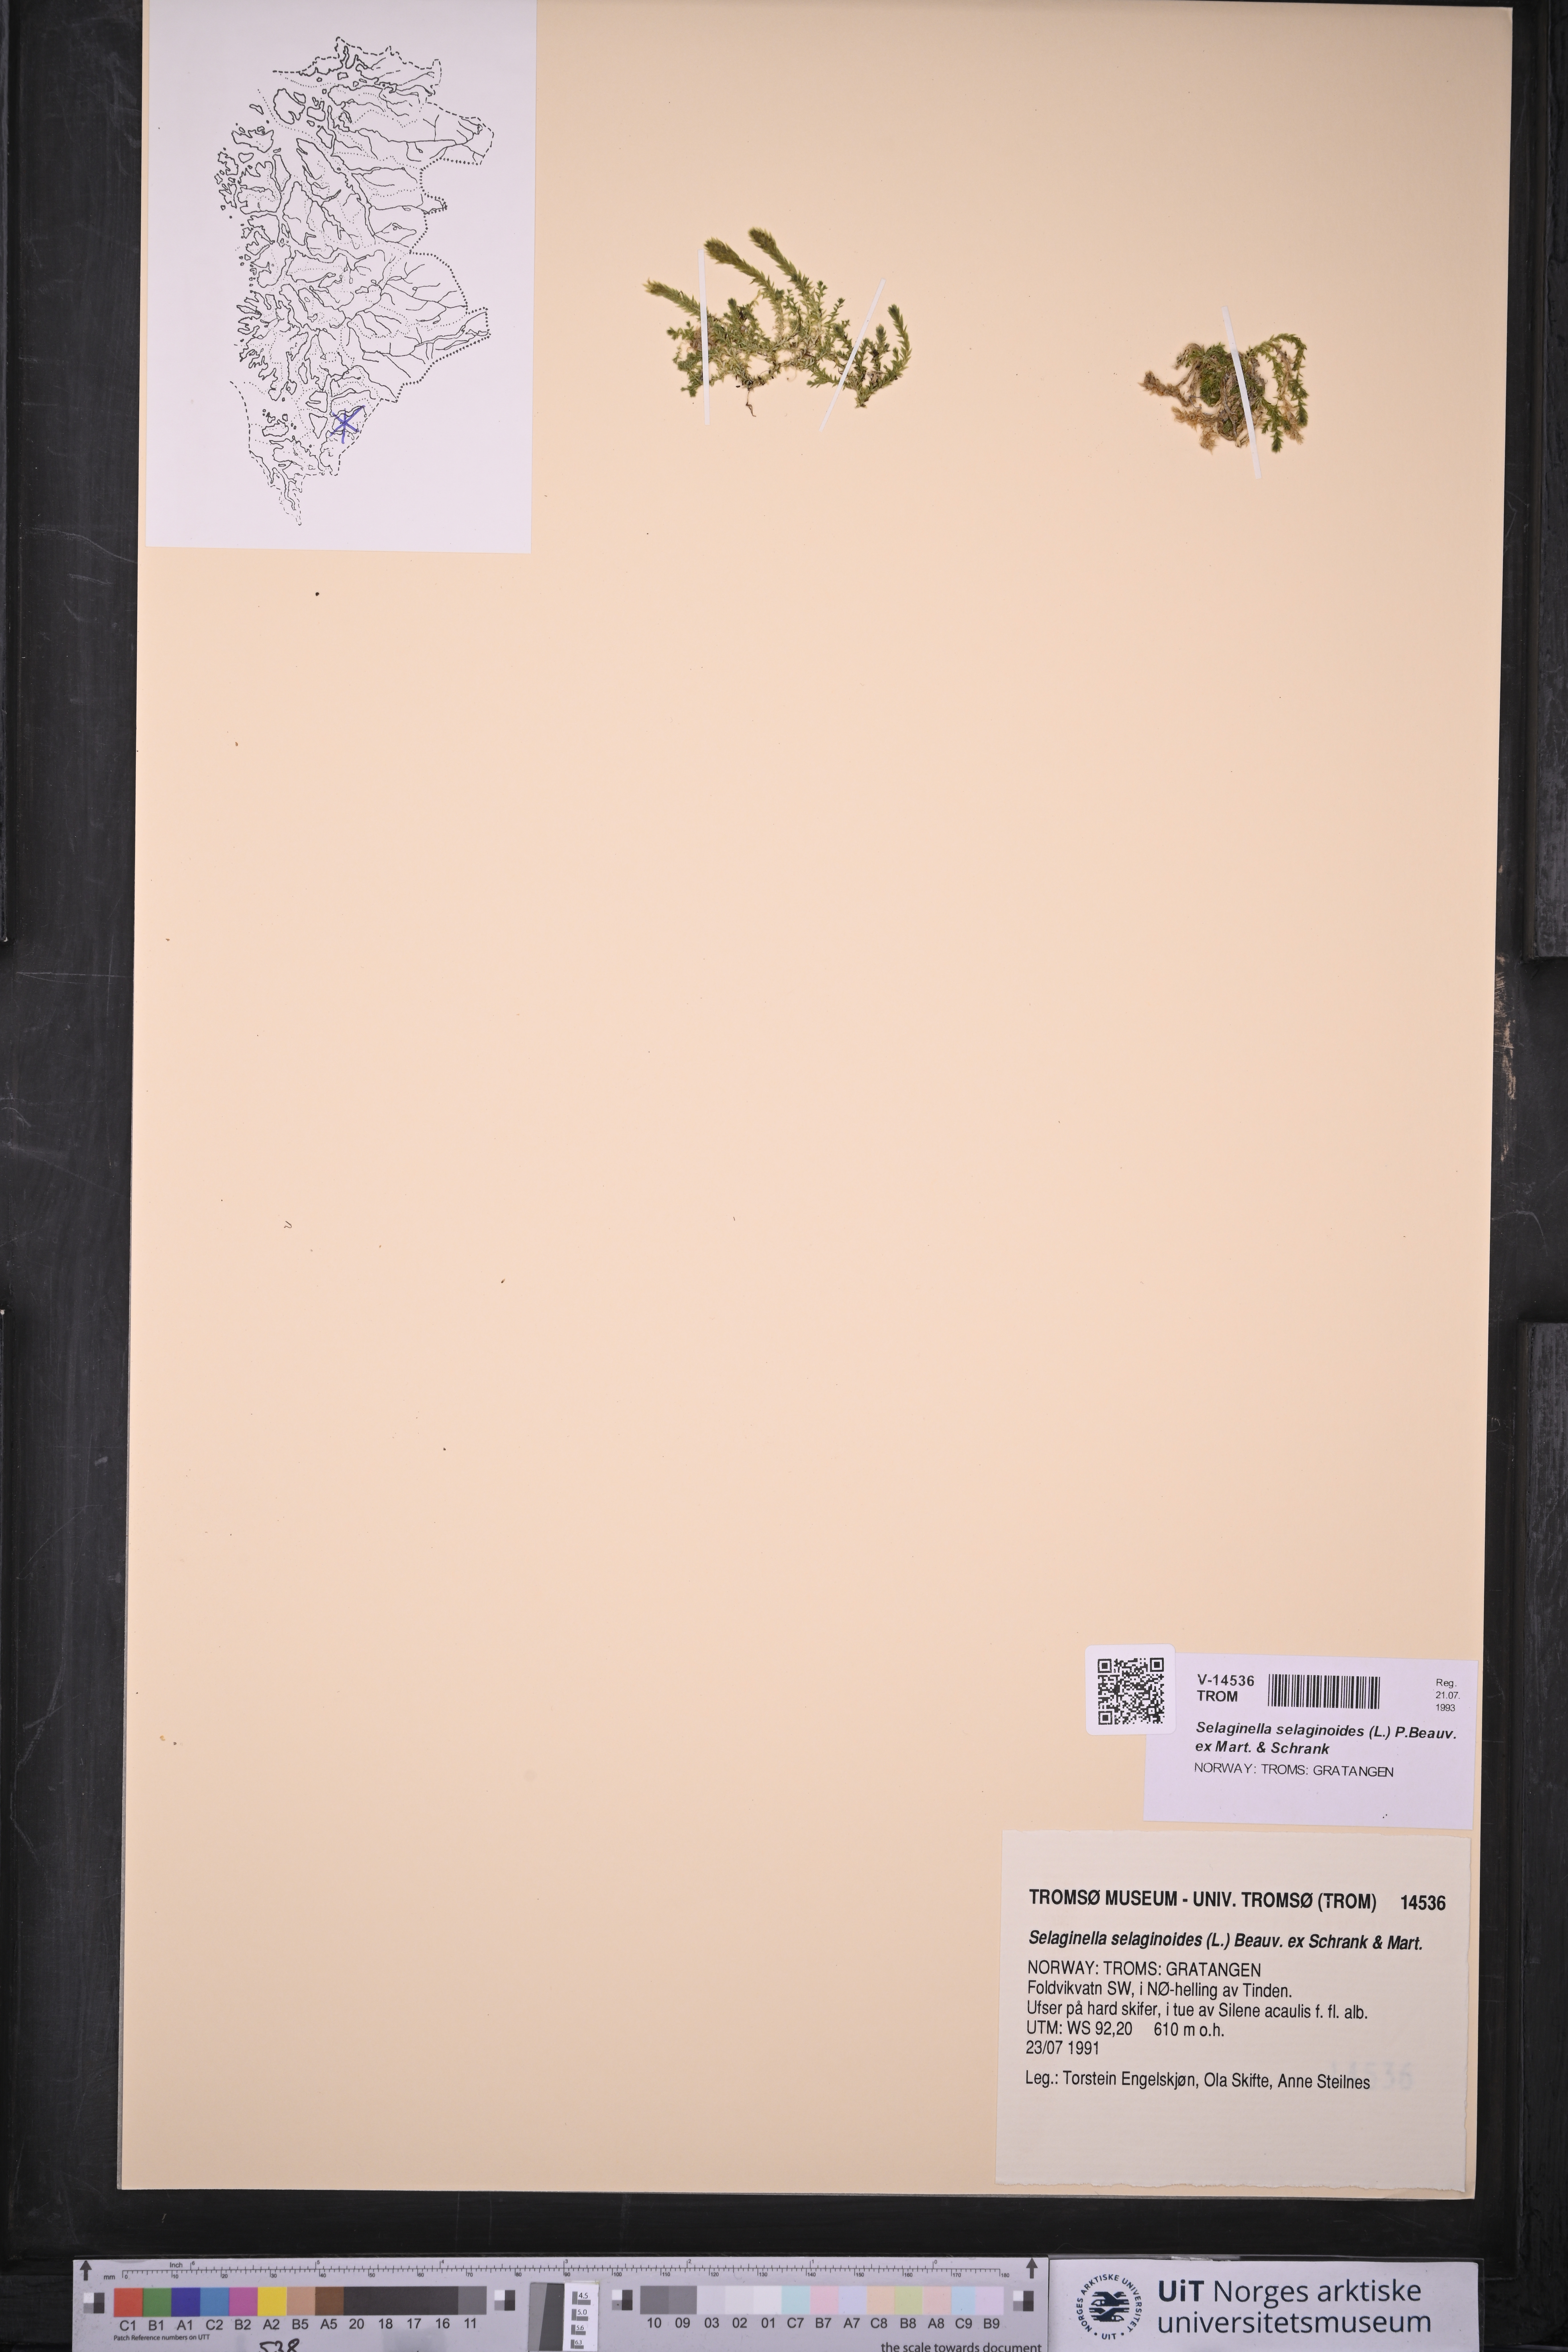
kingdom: Plantae
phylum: Tracheophyta
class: Lycopodiopsida
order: Selaginellales
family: Selaginellaceae
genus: Selaginella
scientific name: Selaginella selaginoides
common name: Prickly mountain-moss
